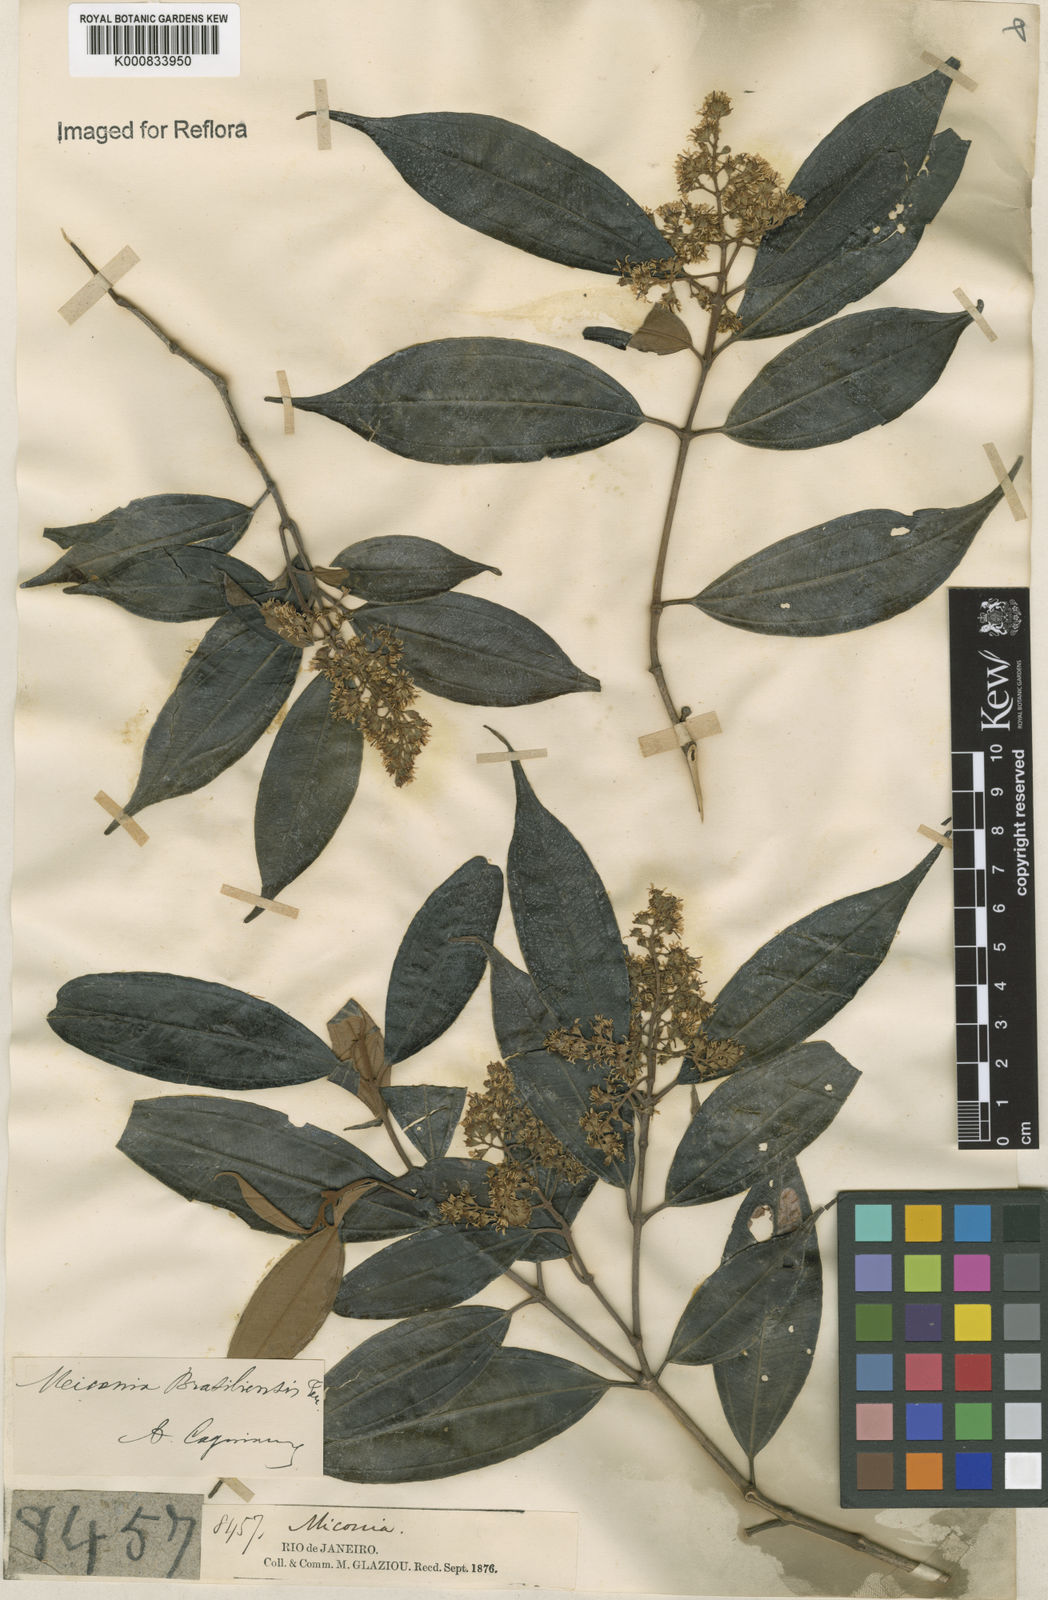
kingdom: Plantae
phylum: Tracheophyta
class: Magnoliopsida
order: Myrtales
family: Melastomataceae
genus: Miconia
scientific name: Miconia brasiliensis
